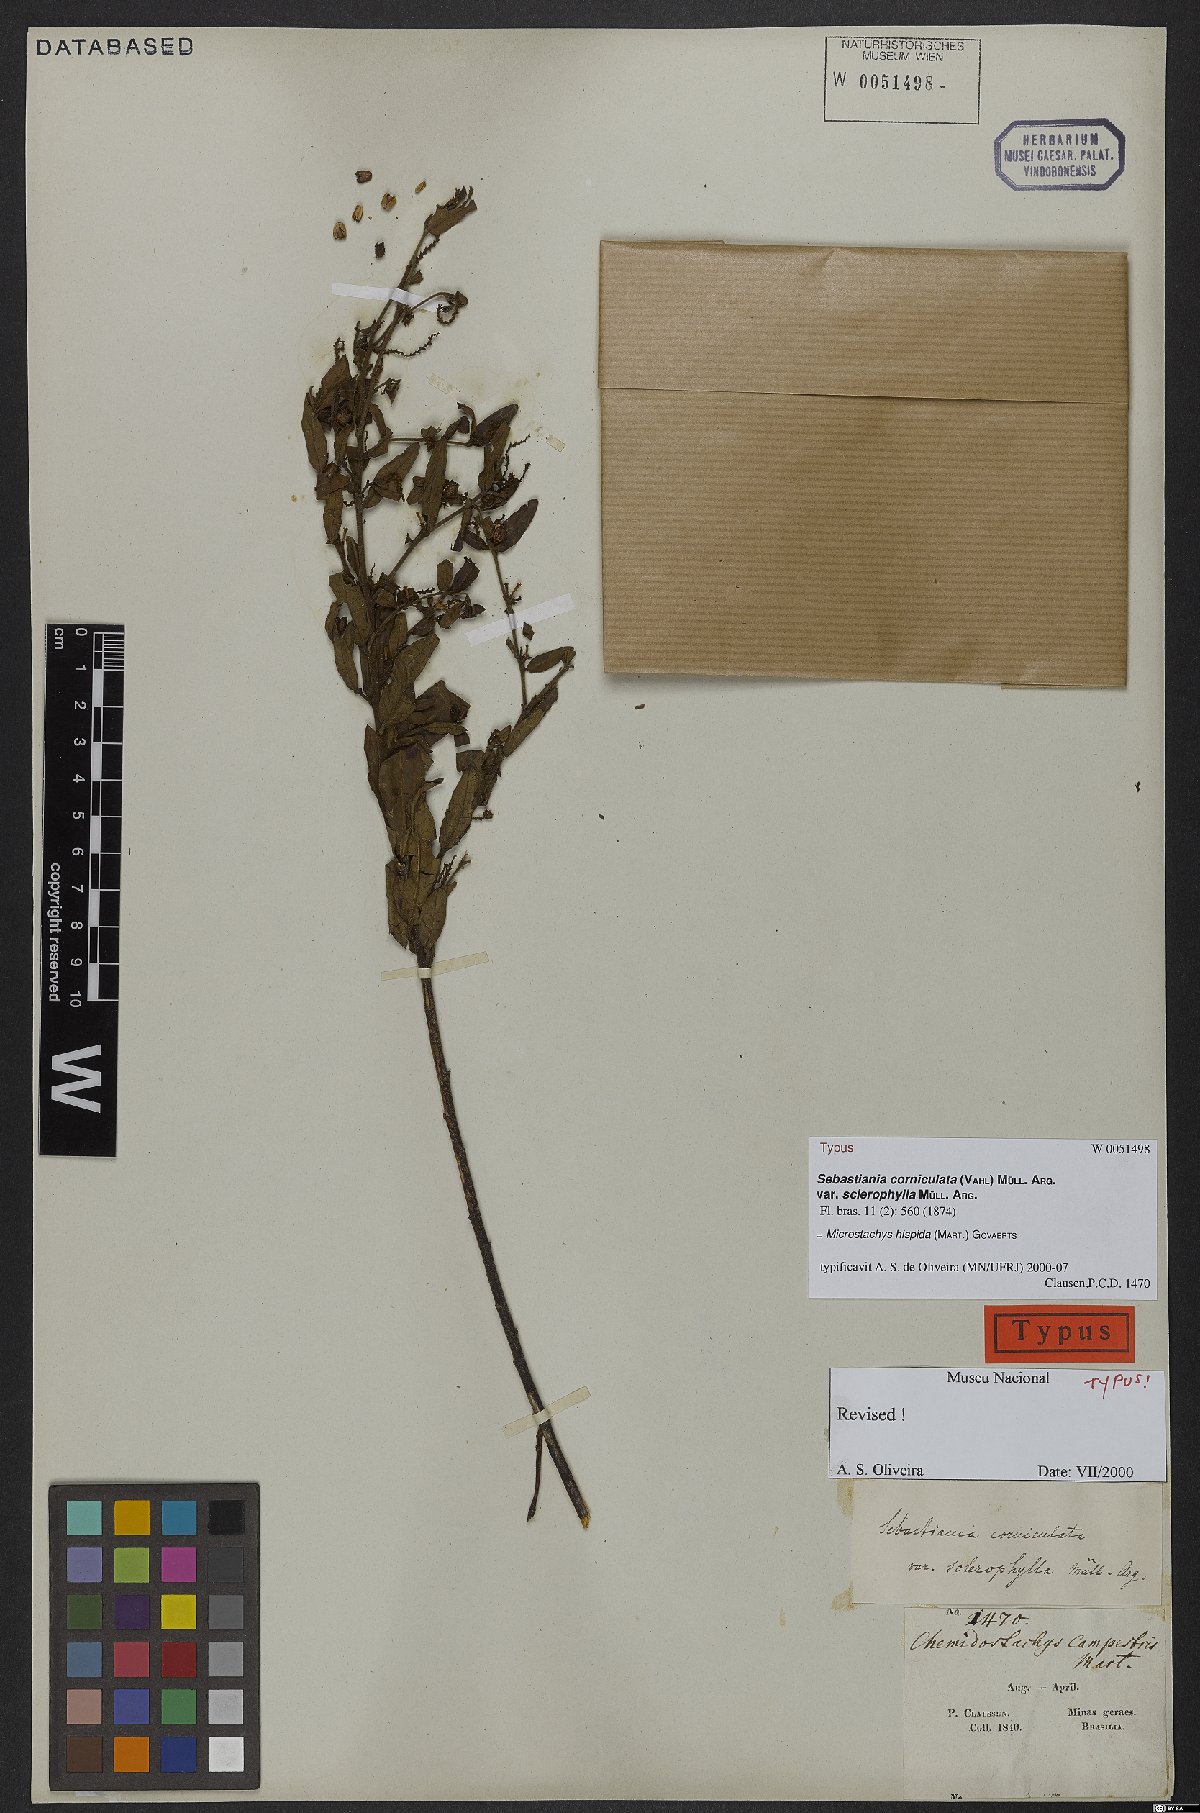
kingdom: Plantae
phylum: Tracheophyta
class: Magnoliopsida
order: Malpighiales
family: Euphorbiaceae
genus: Microstachys
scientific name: Microstachys hispida
